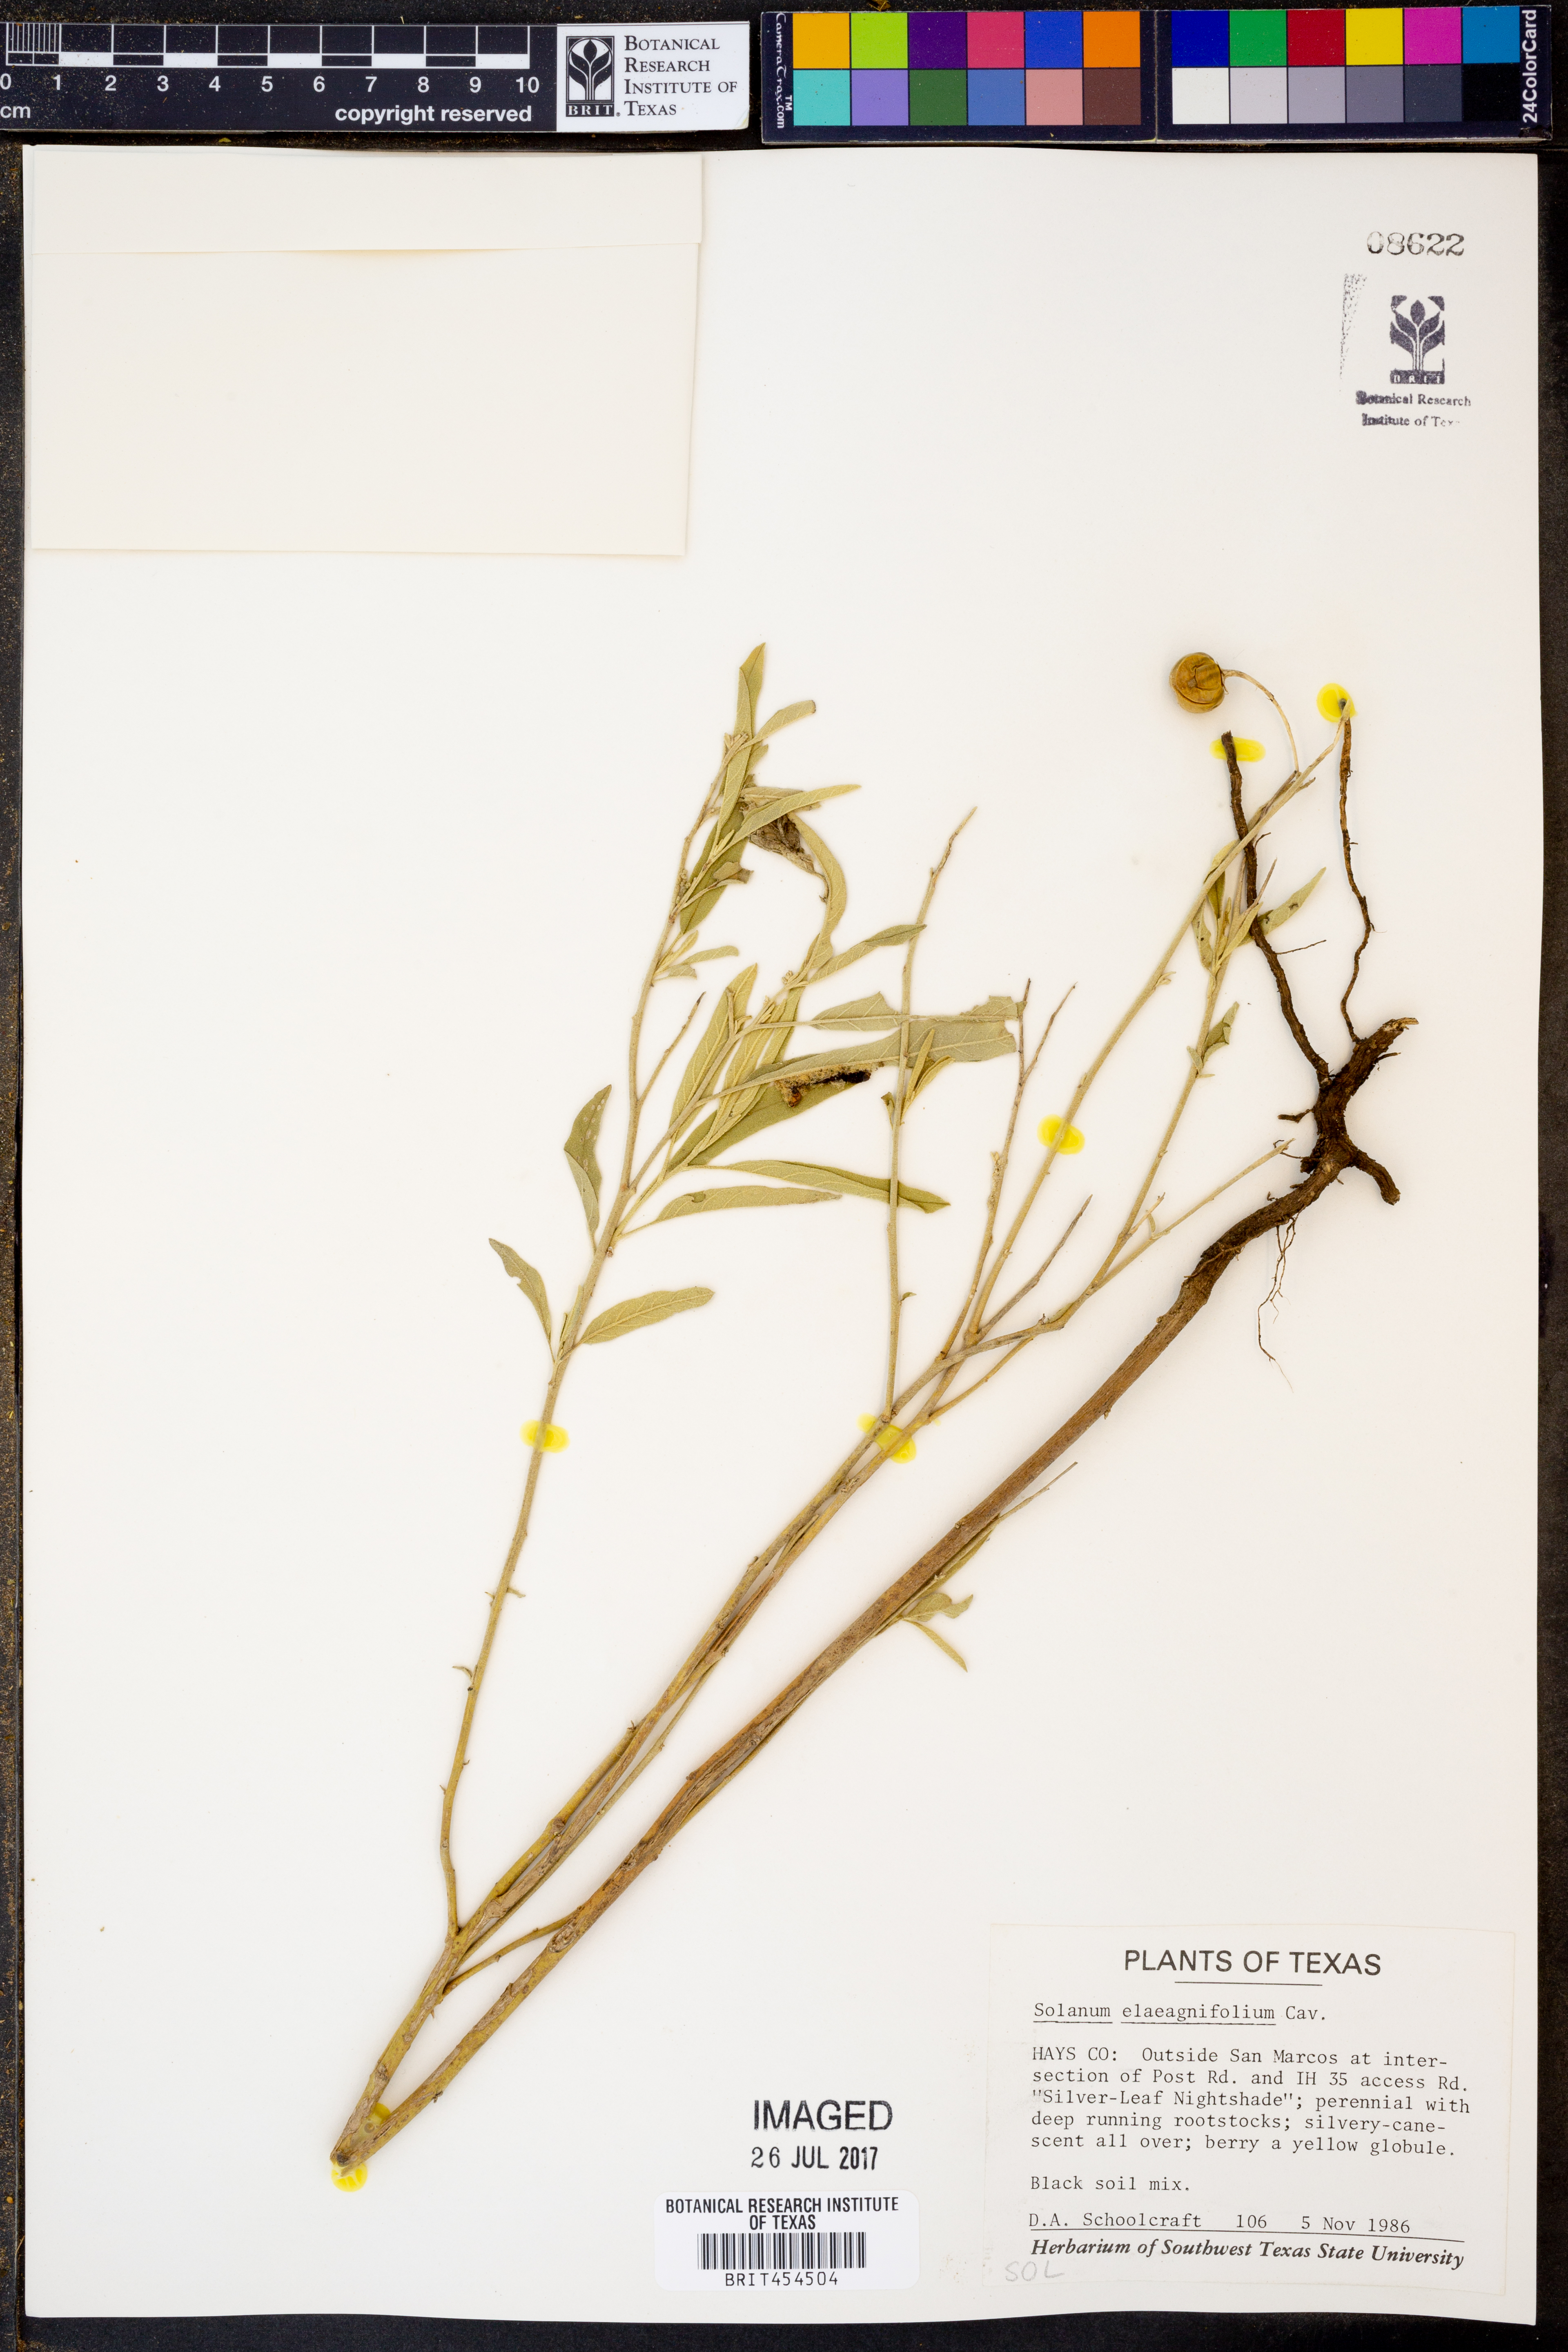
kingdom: Plantae
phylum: Tracheophyta
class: Magnoliopsida
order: Solanales
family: Solanaceae
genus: Solanum
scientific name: Solanum elaeagnifolium
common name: Silverleaf nightshade
